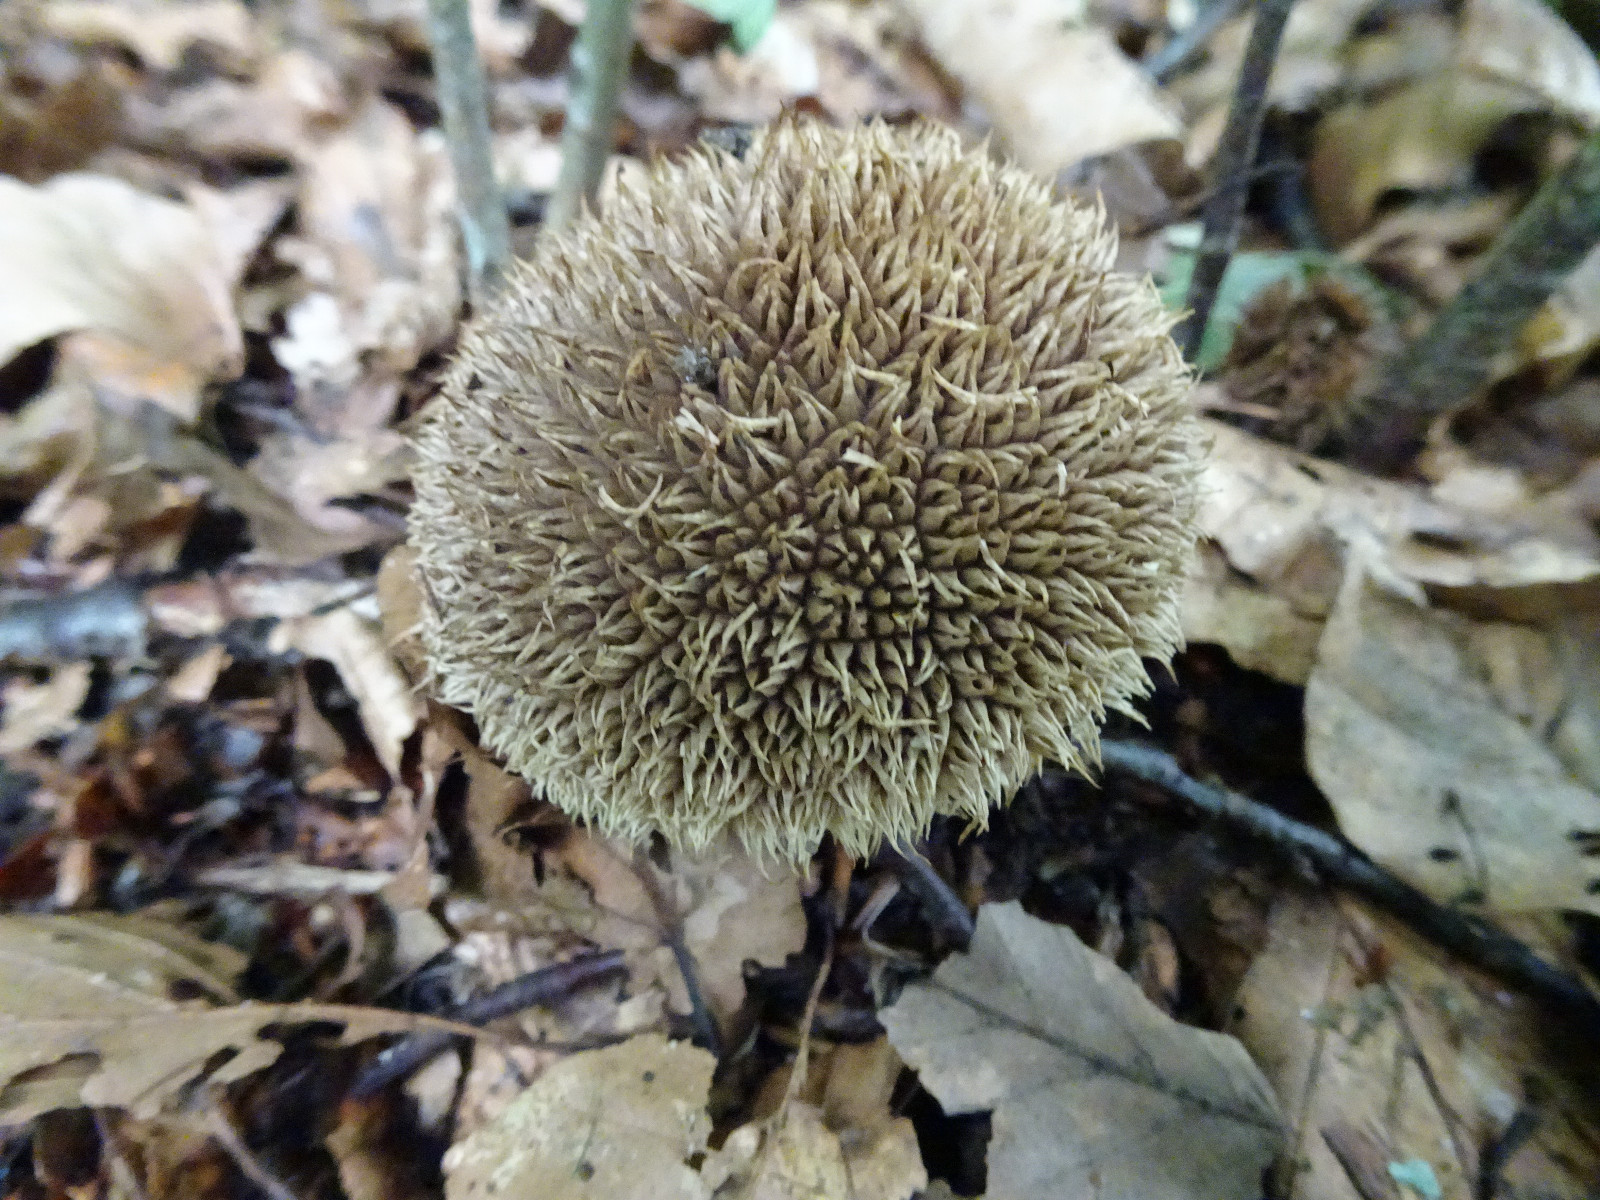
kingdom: Fungi
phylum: Basidiomycota
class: Agaricomycetes
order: Agaricales
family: Lycoperdaceae
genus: Lycoperdon
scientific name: Lycoperdon echinatum
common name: pindsvine-støvbold
